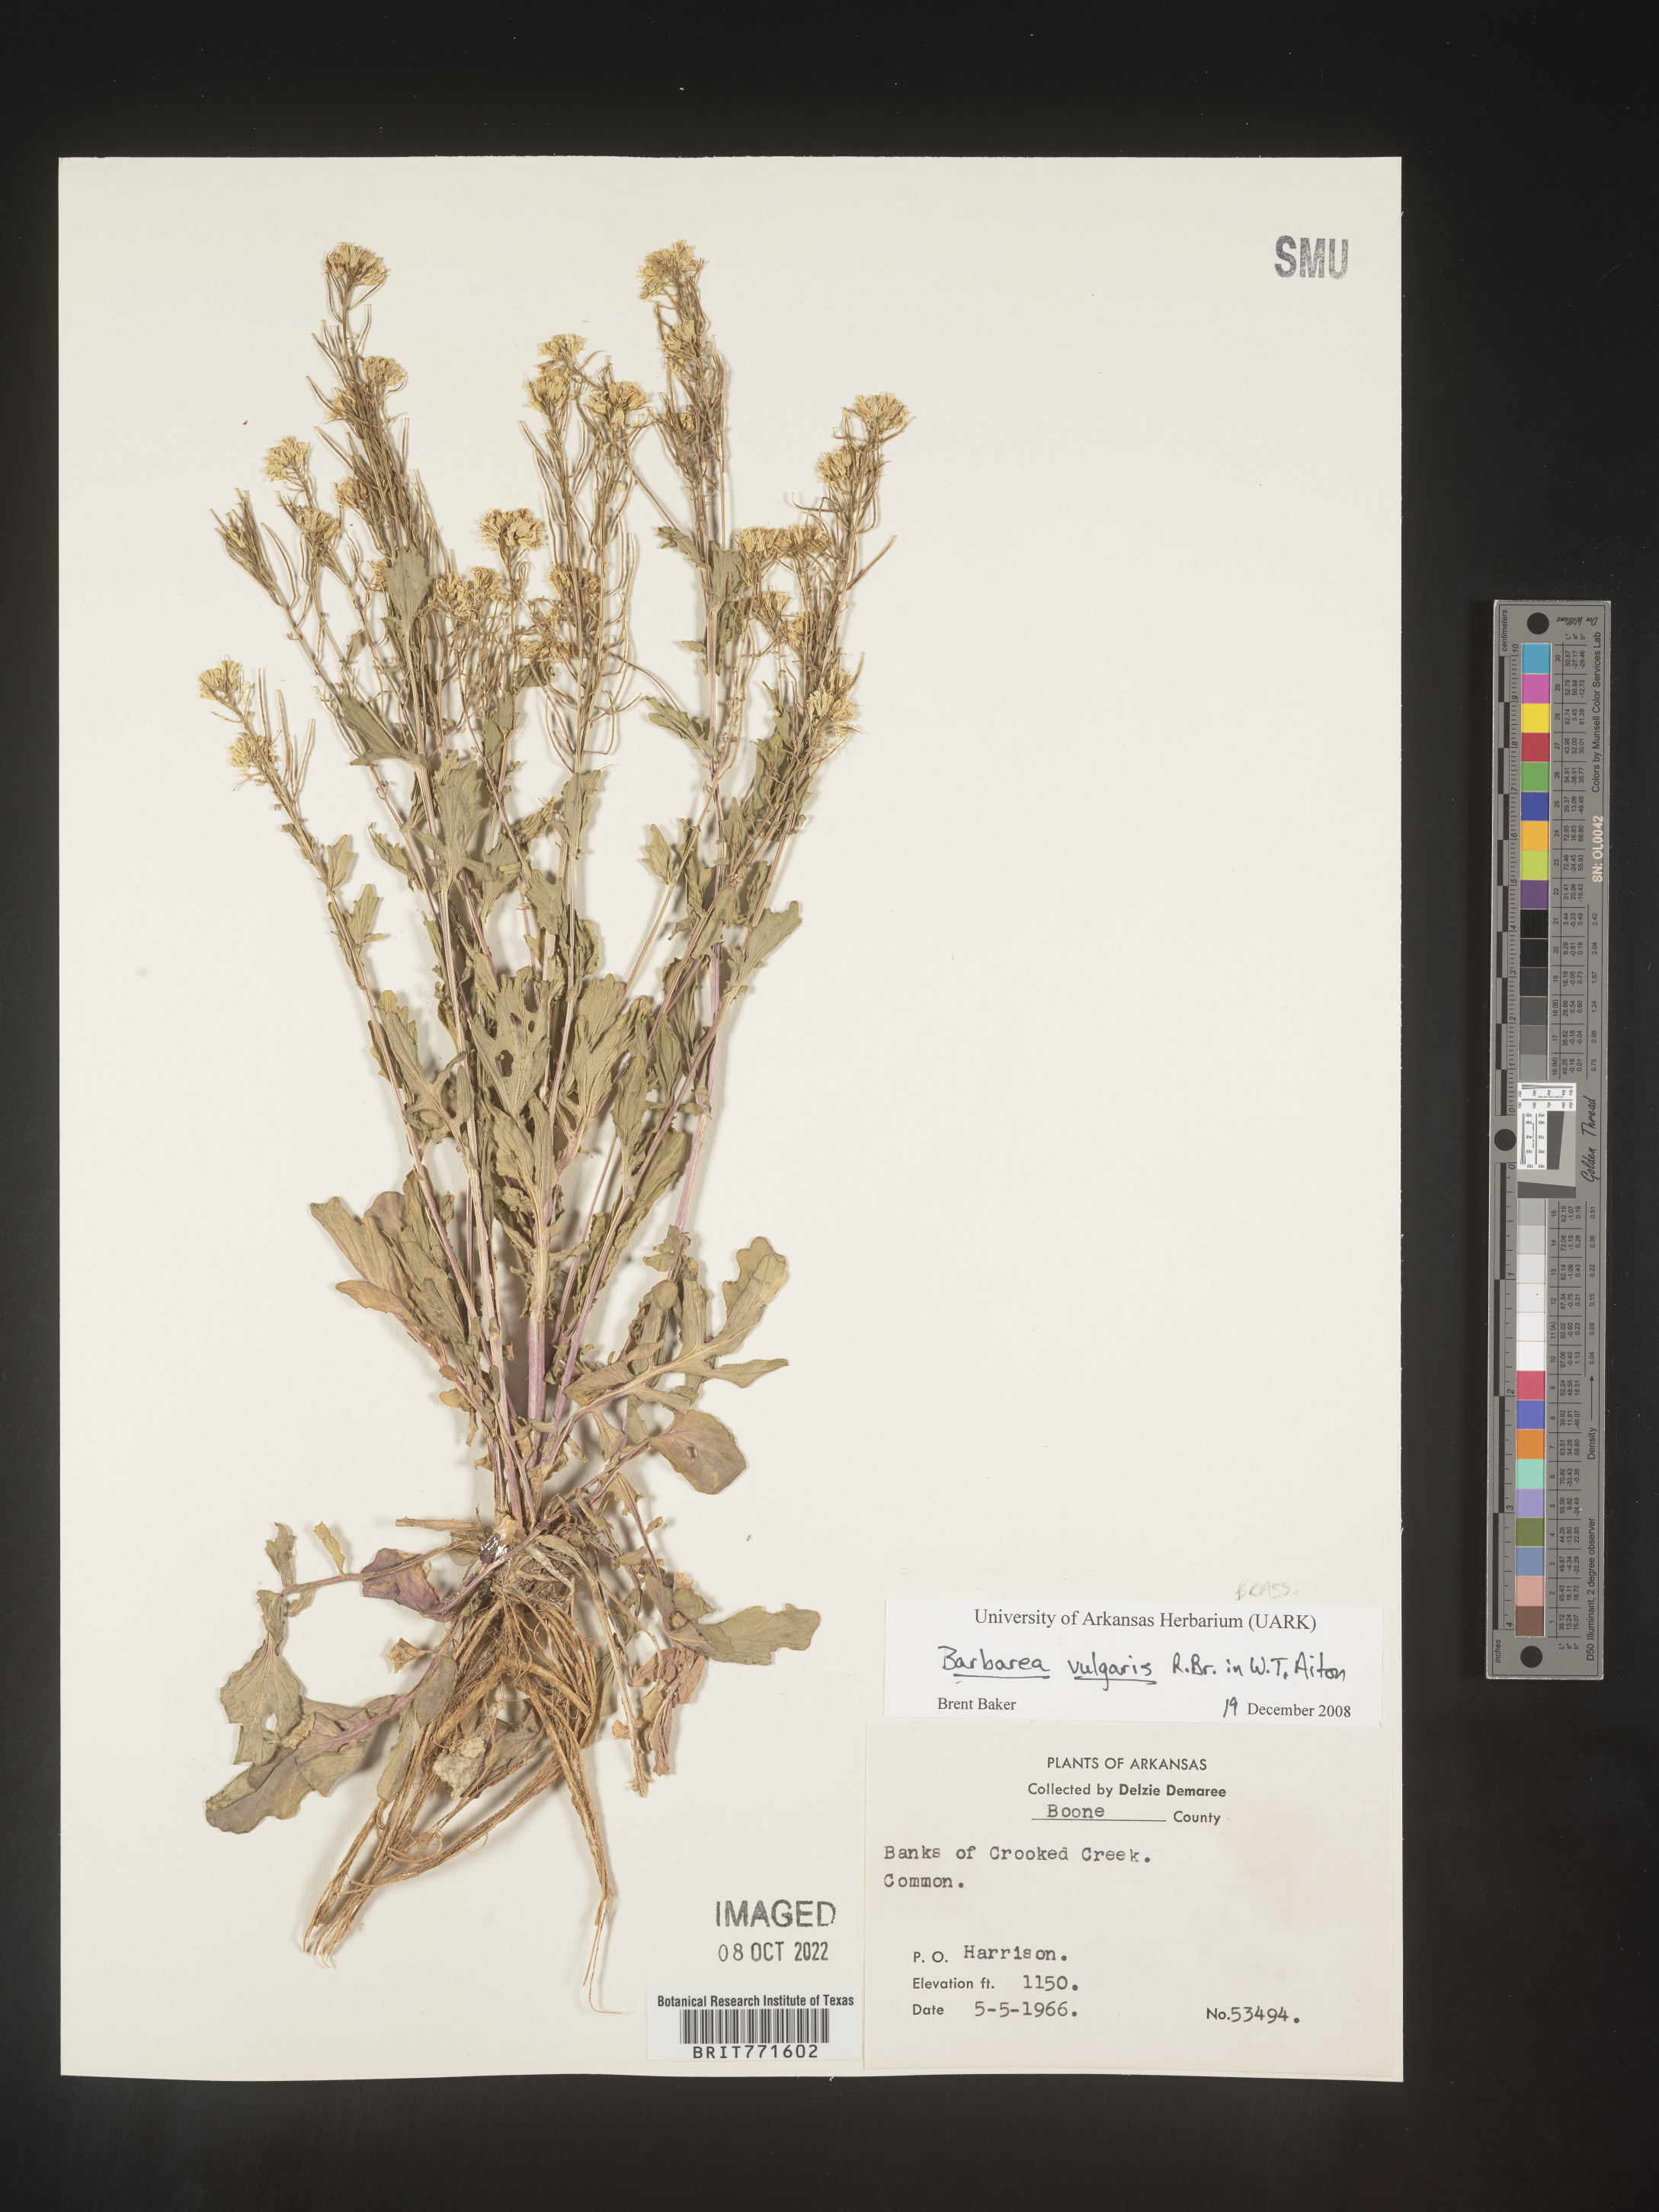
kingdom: Plantae
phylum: Tracheophyta
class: Magnoliopsida
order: Brassicales
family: Brassicaceae
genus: Barbarea
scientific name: Barbarea vulgaris
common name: Cressy-greens
